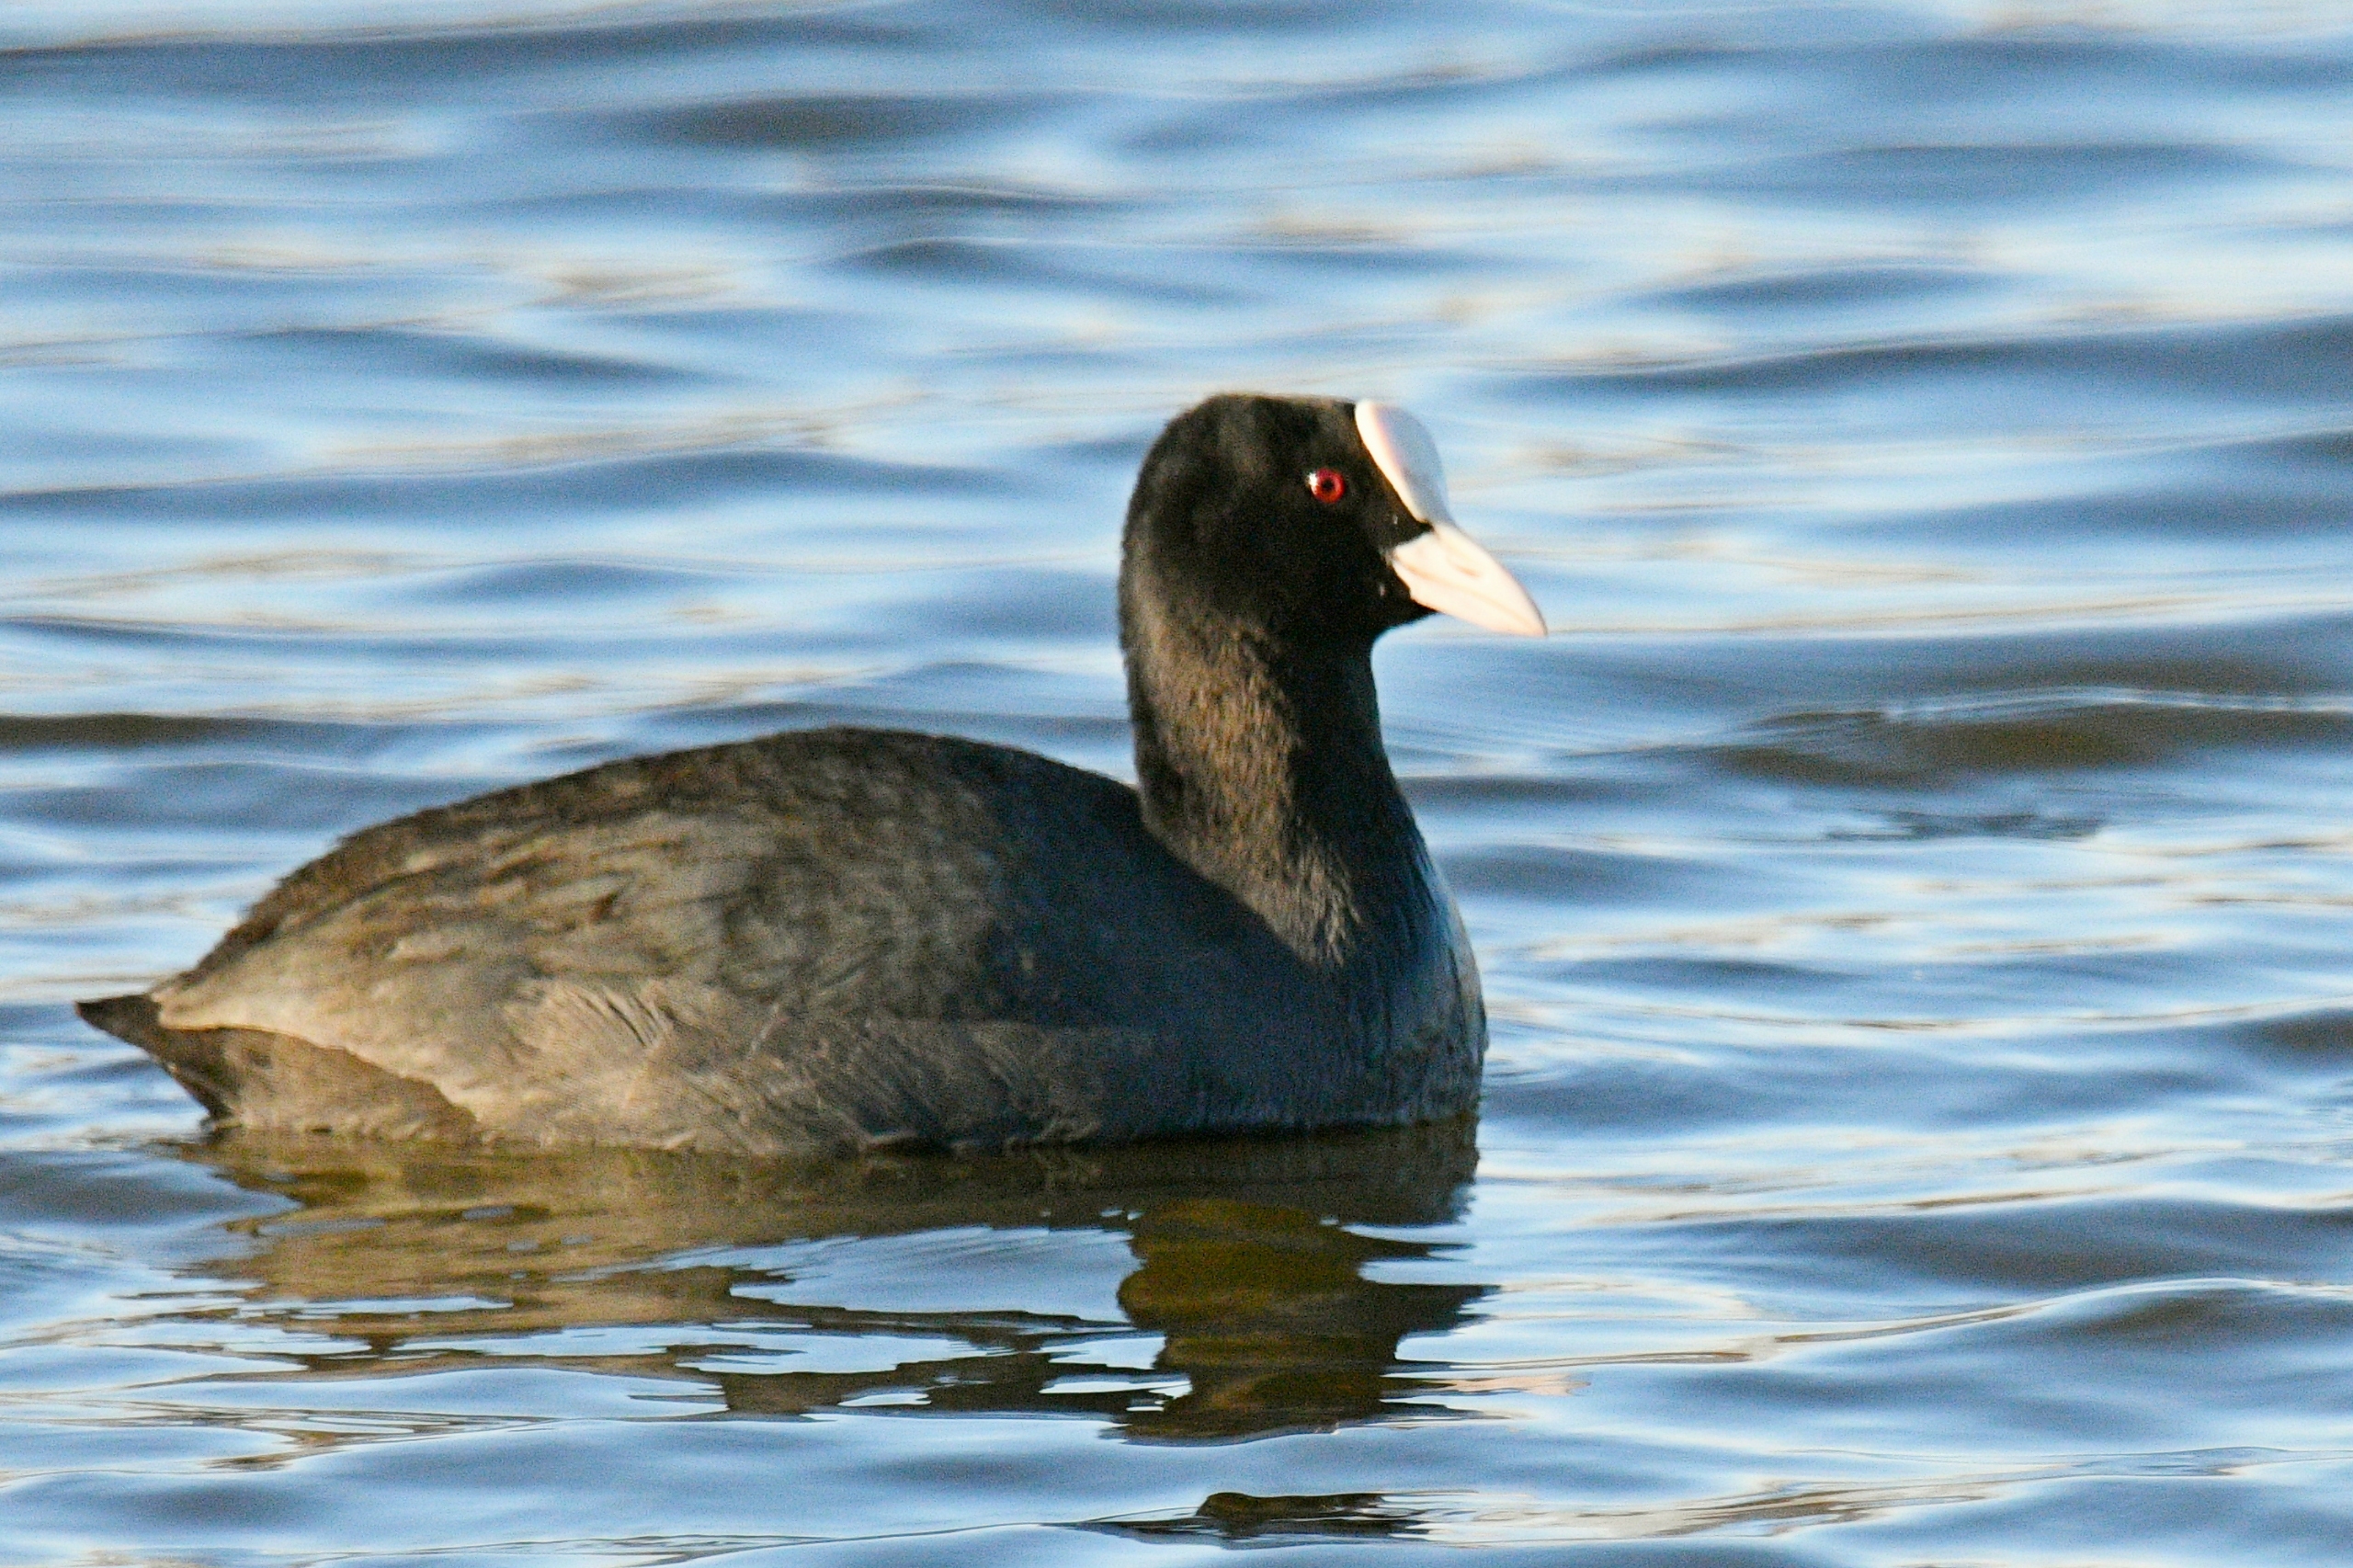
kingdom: Animalia
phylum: Chordata
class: Aves
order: Gruiformes
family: Rallidae
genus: Fulica
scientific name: Fulica atra
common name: Blishøne
